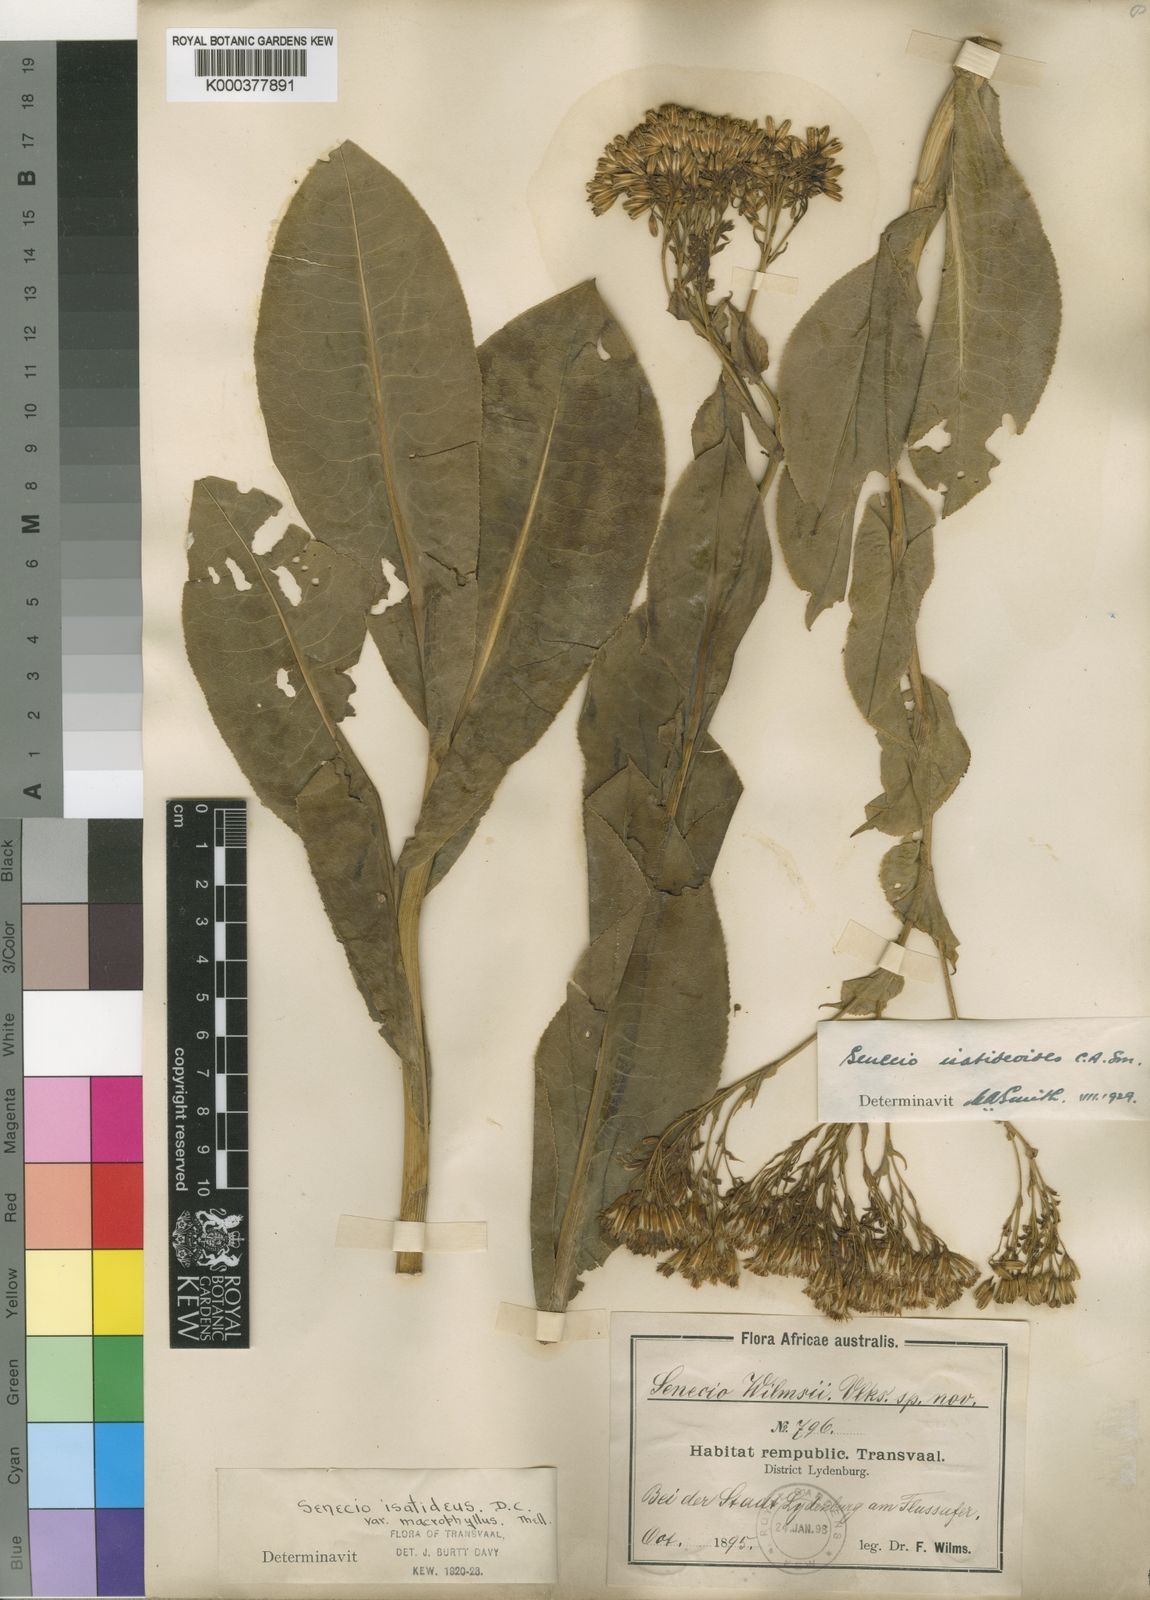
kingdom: Plantae
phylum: Tracheophyta
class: Magnoliopsida
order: Asterales
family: Asteraceae
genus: Senecio
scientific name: Senecio isatidoides
